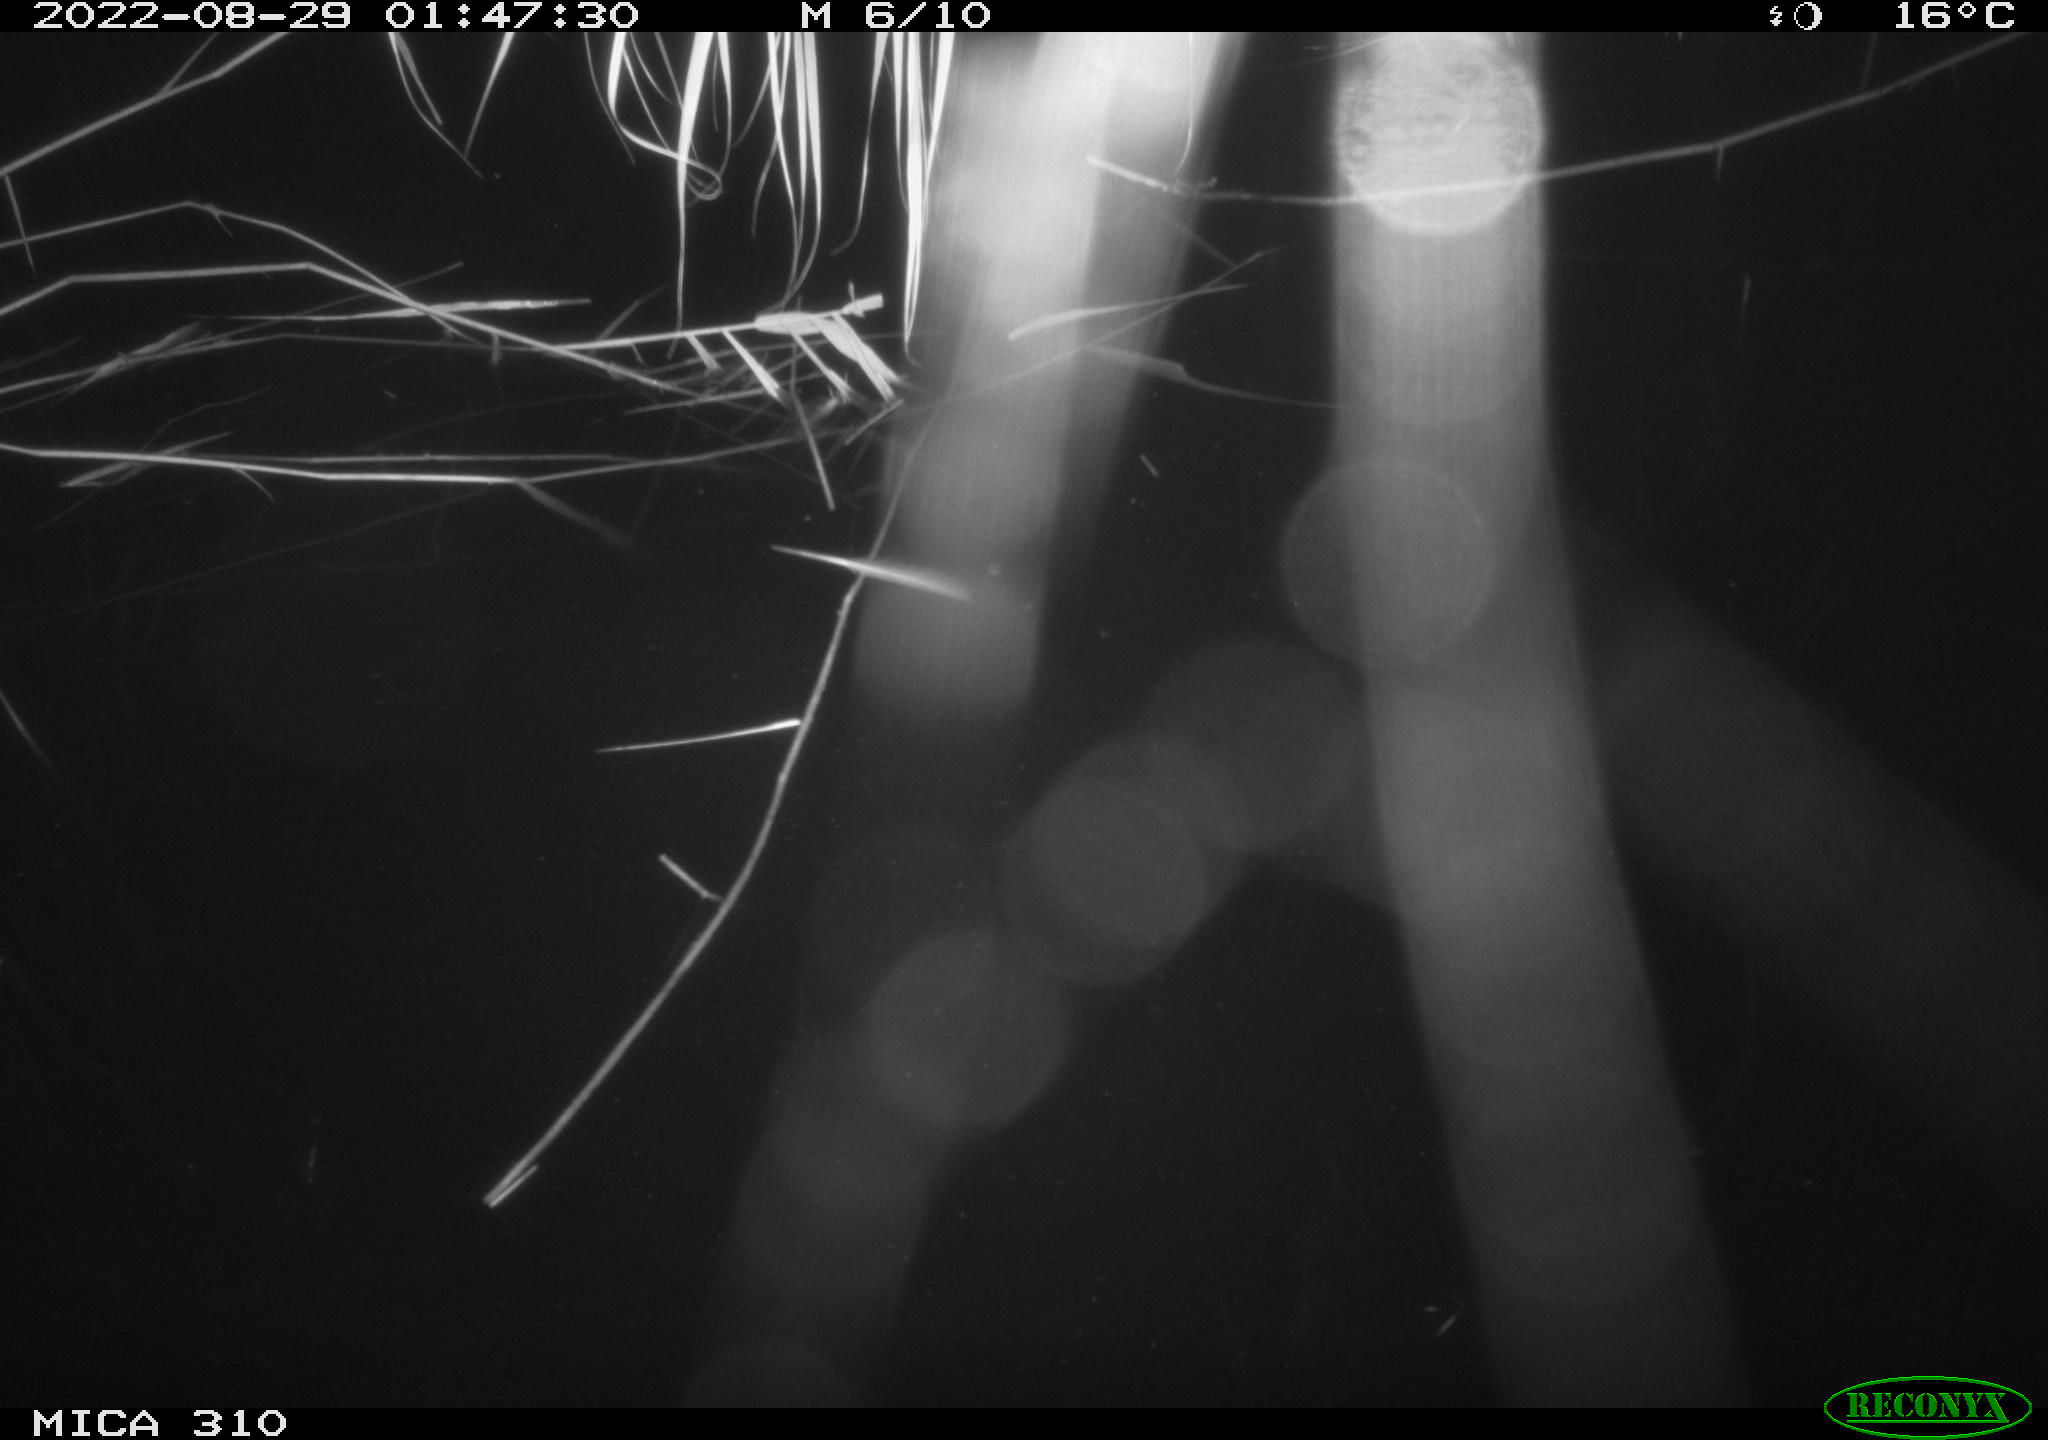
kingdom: Animalia
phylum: Chordata
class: Aves
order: Anseriformes
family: Anatidae
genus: Anas
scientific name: Anas platyrhynchos
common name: Mallard
